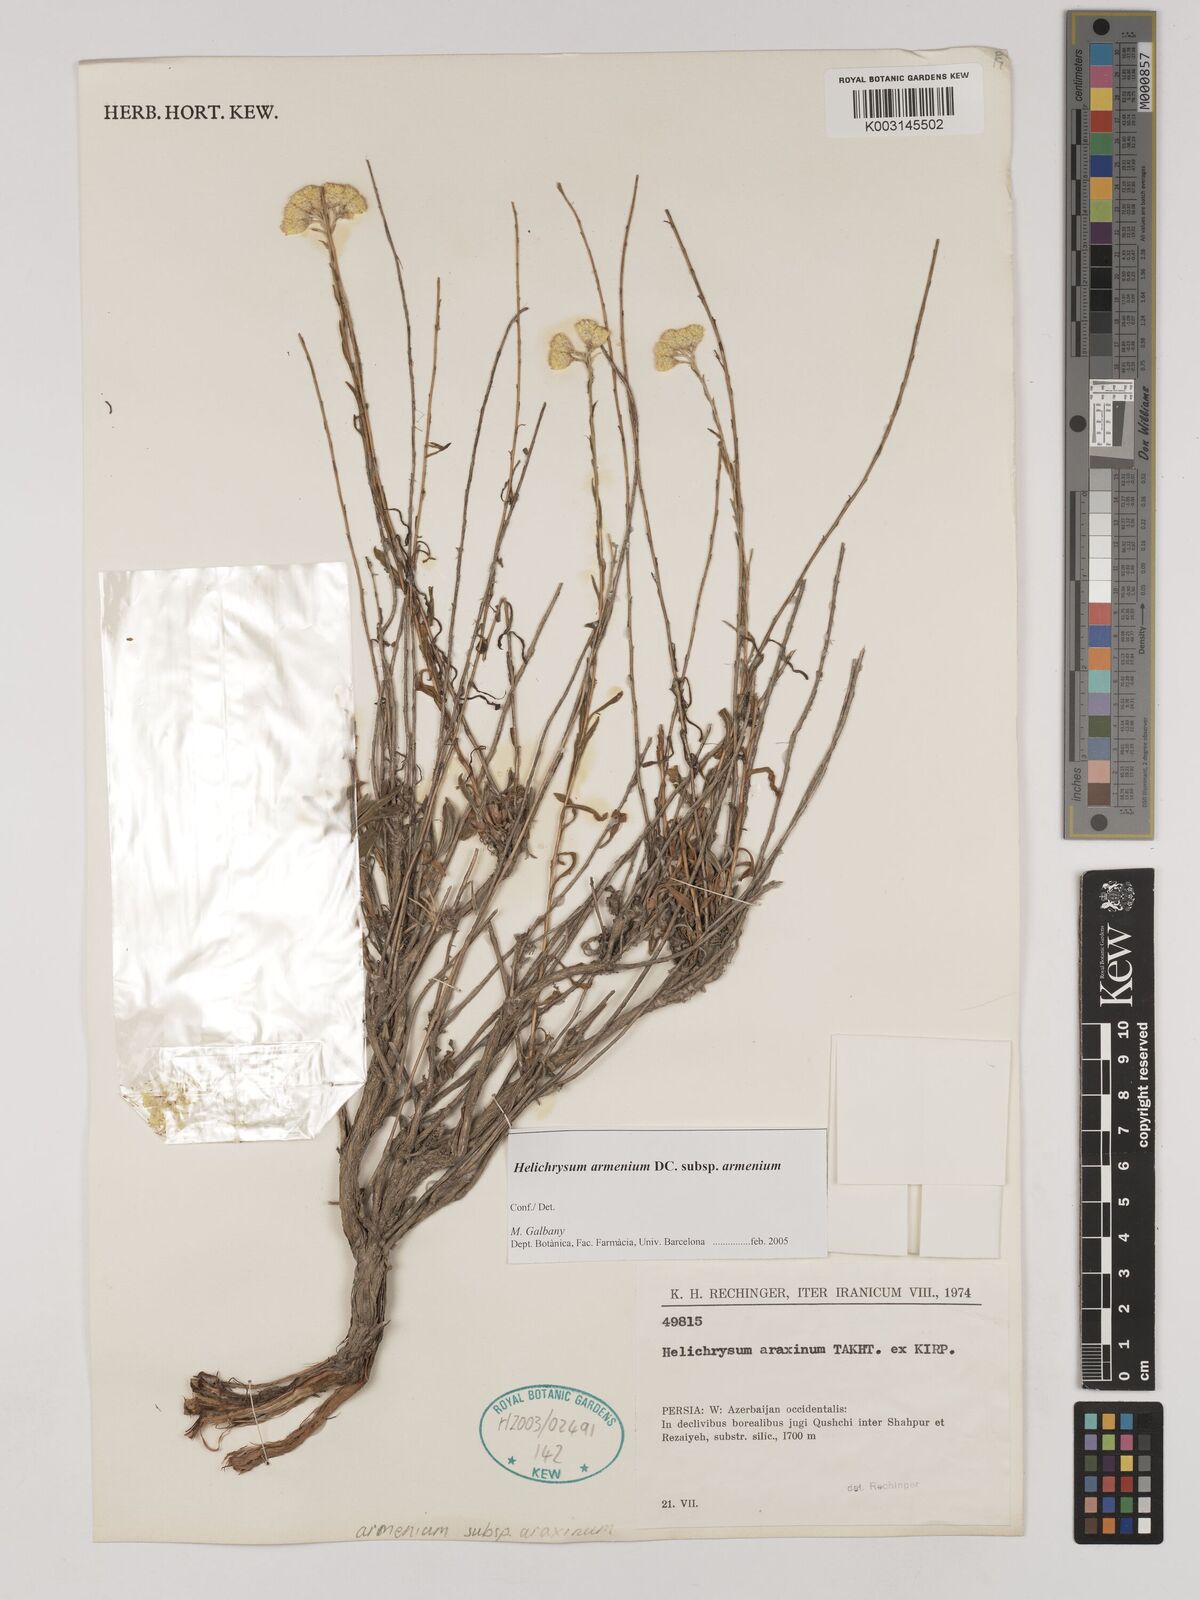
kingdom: Plantae
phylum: Tracheophyta
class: Magnoliopsida
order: Asterales
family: Asteraceae
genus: Helichrysum
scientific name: Helichrysum armenium
